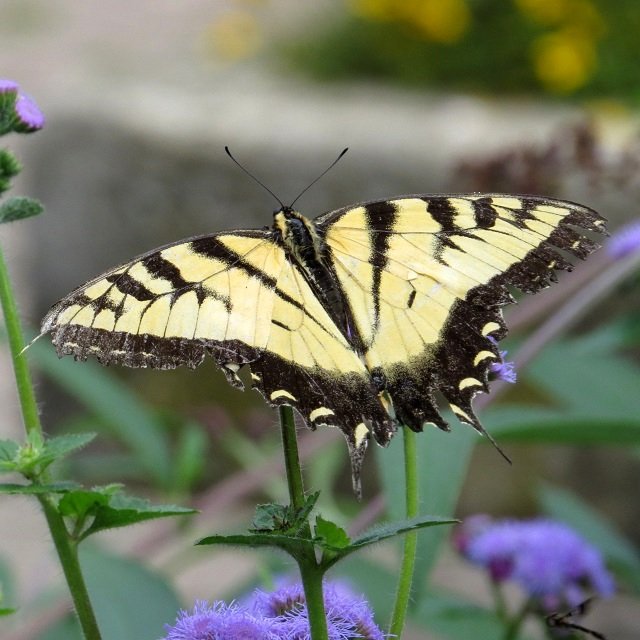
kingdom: Animalia
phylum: Arthropoda
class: Insecta
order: Lepidoptera
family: Papilionidae
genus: Pterourus
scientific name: Pterourus glaucus
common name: Eastern Tiger Swallowtail
